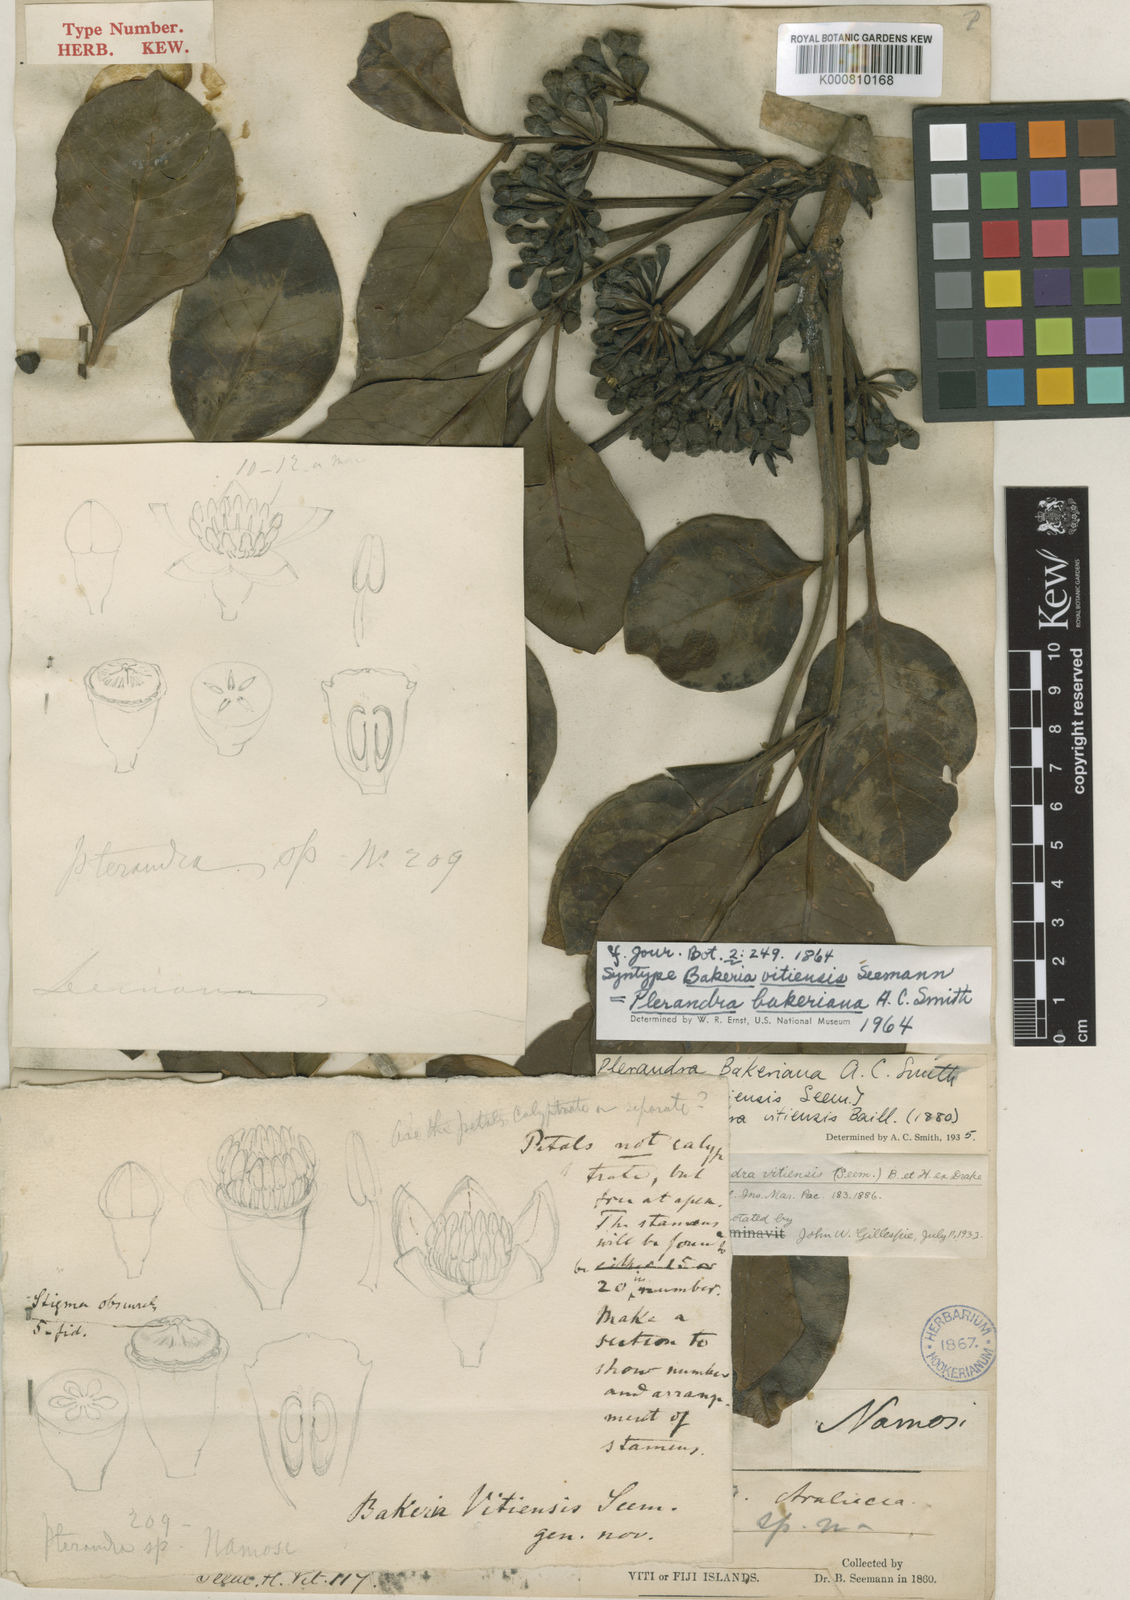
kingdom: Plantae
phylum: Tracheophyta
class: Magnoliopsida
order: Apiales
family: Araliaceae
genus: Plerandra
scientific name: Plerandra bakeriana
